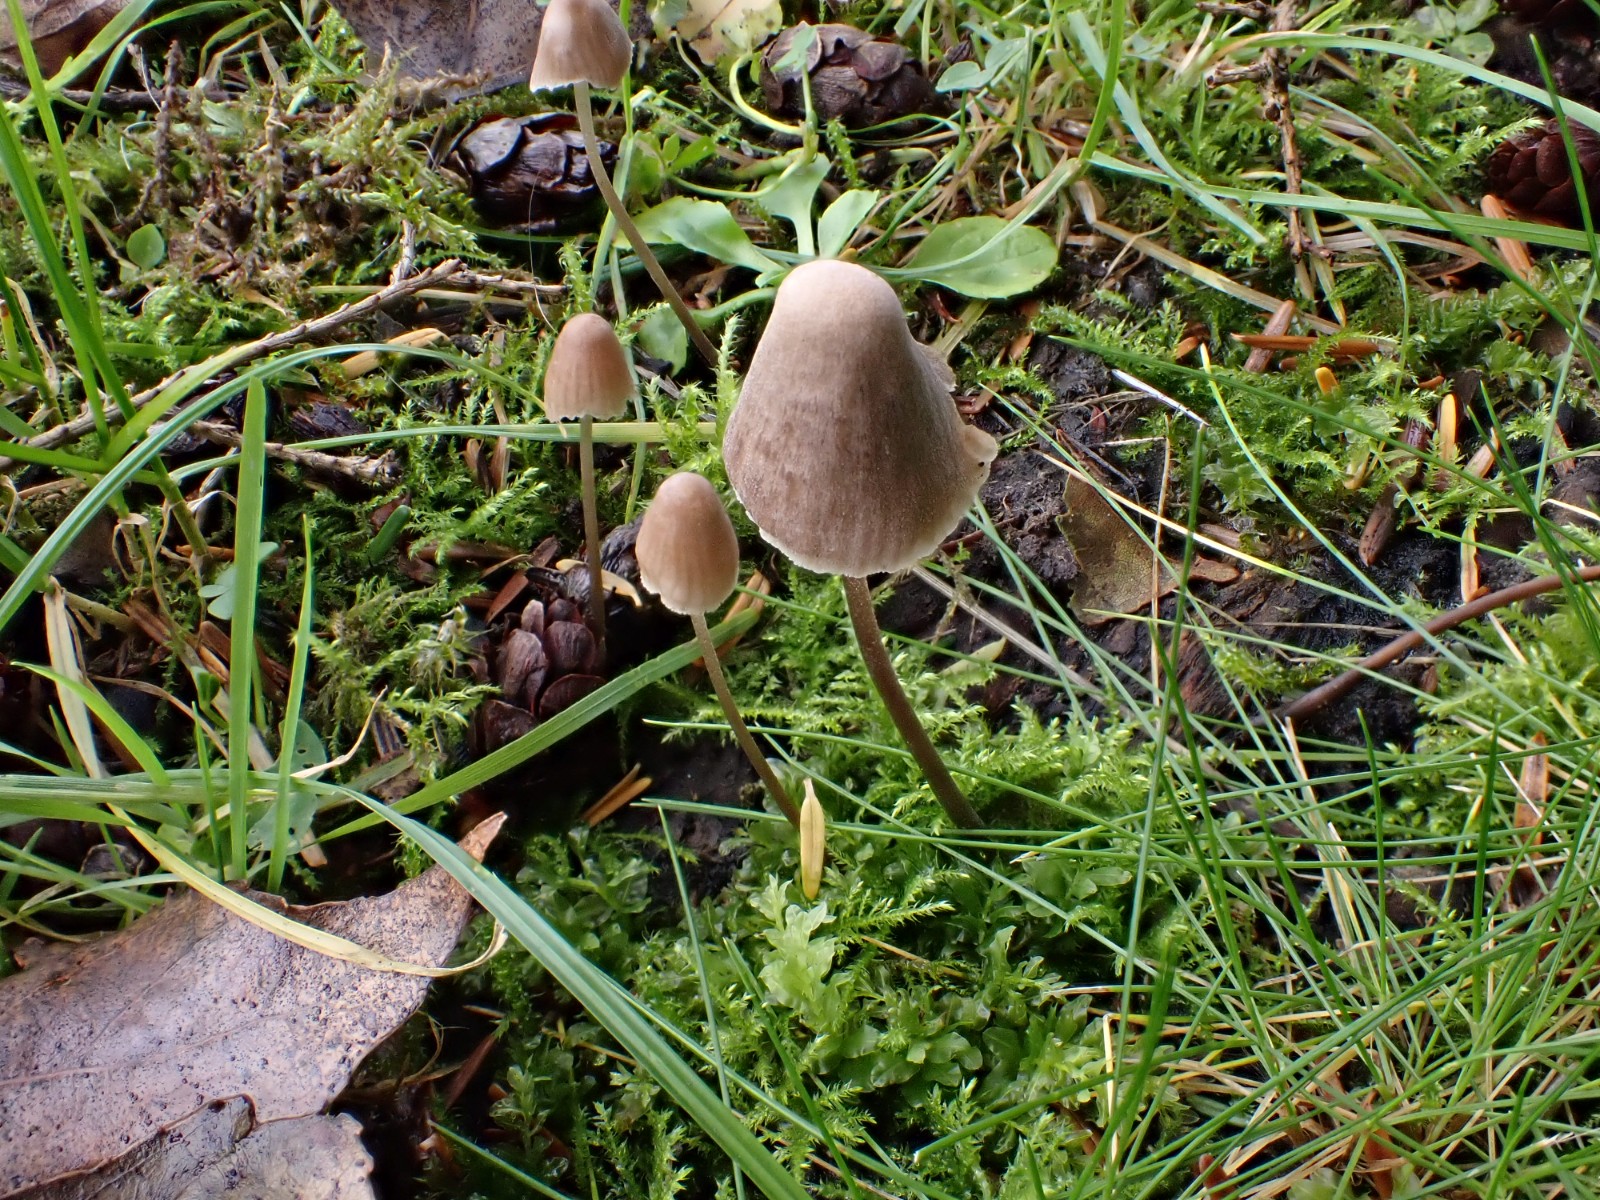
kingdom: Fungi
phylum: Basidiomycota
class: Agaricomycetes
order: Agaricales
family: Mycenaceae
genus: Mycena
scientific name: Mycena leptocephala
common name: klor-huesvamp
